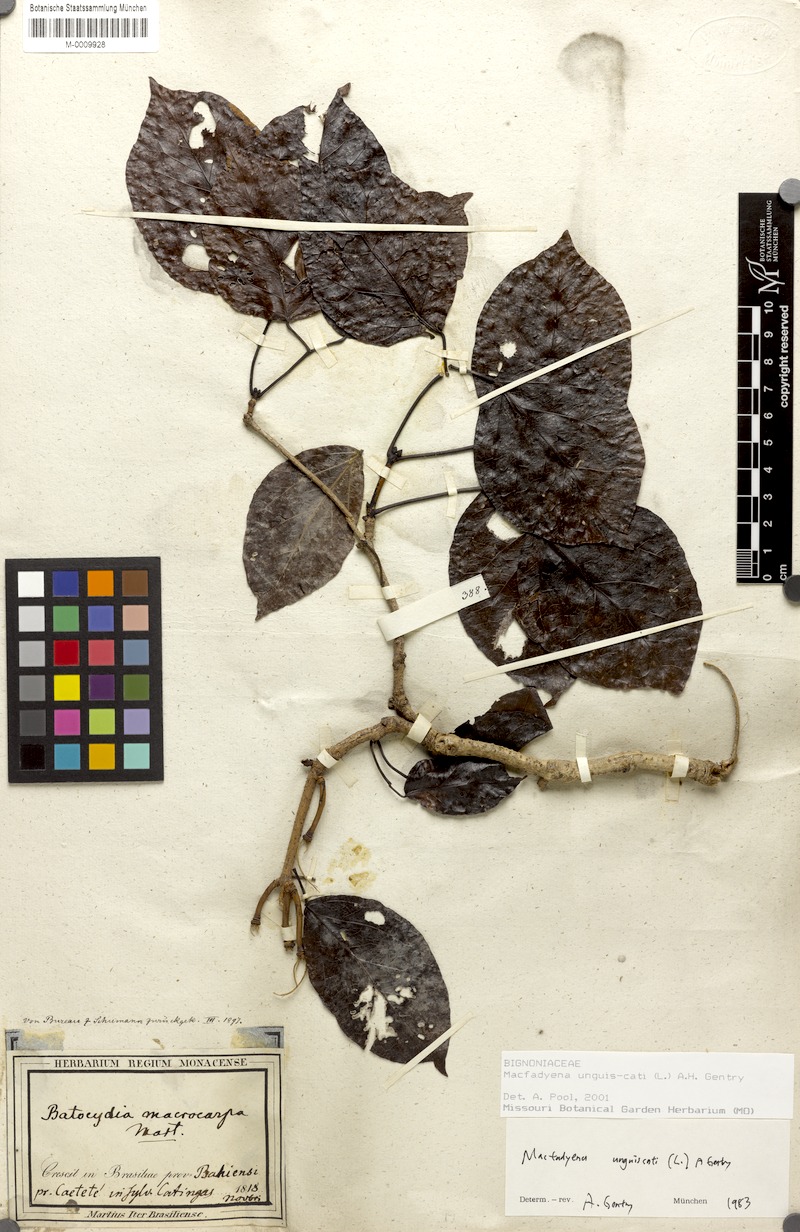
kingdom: Plantae
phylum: Tracheophyta
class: Magnoliopsida
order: Lamiales
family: Bignoniaceae
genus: Dolichandra
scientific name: Dolichandra unguis-cati
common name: Catclaw vine
